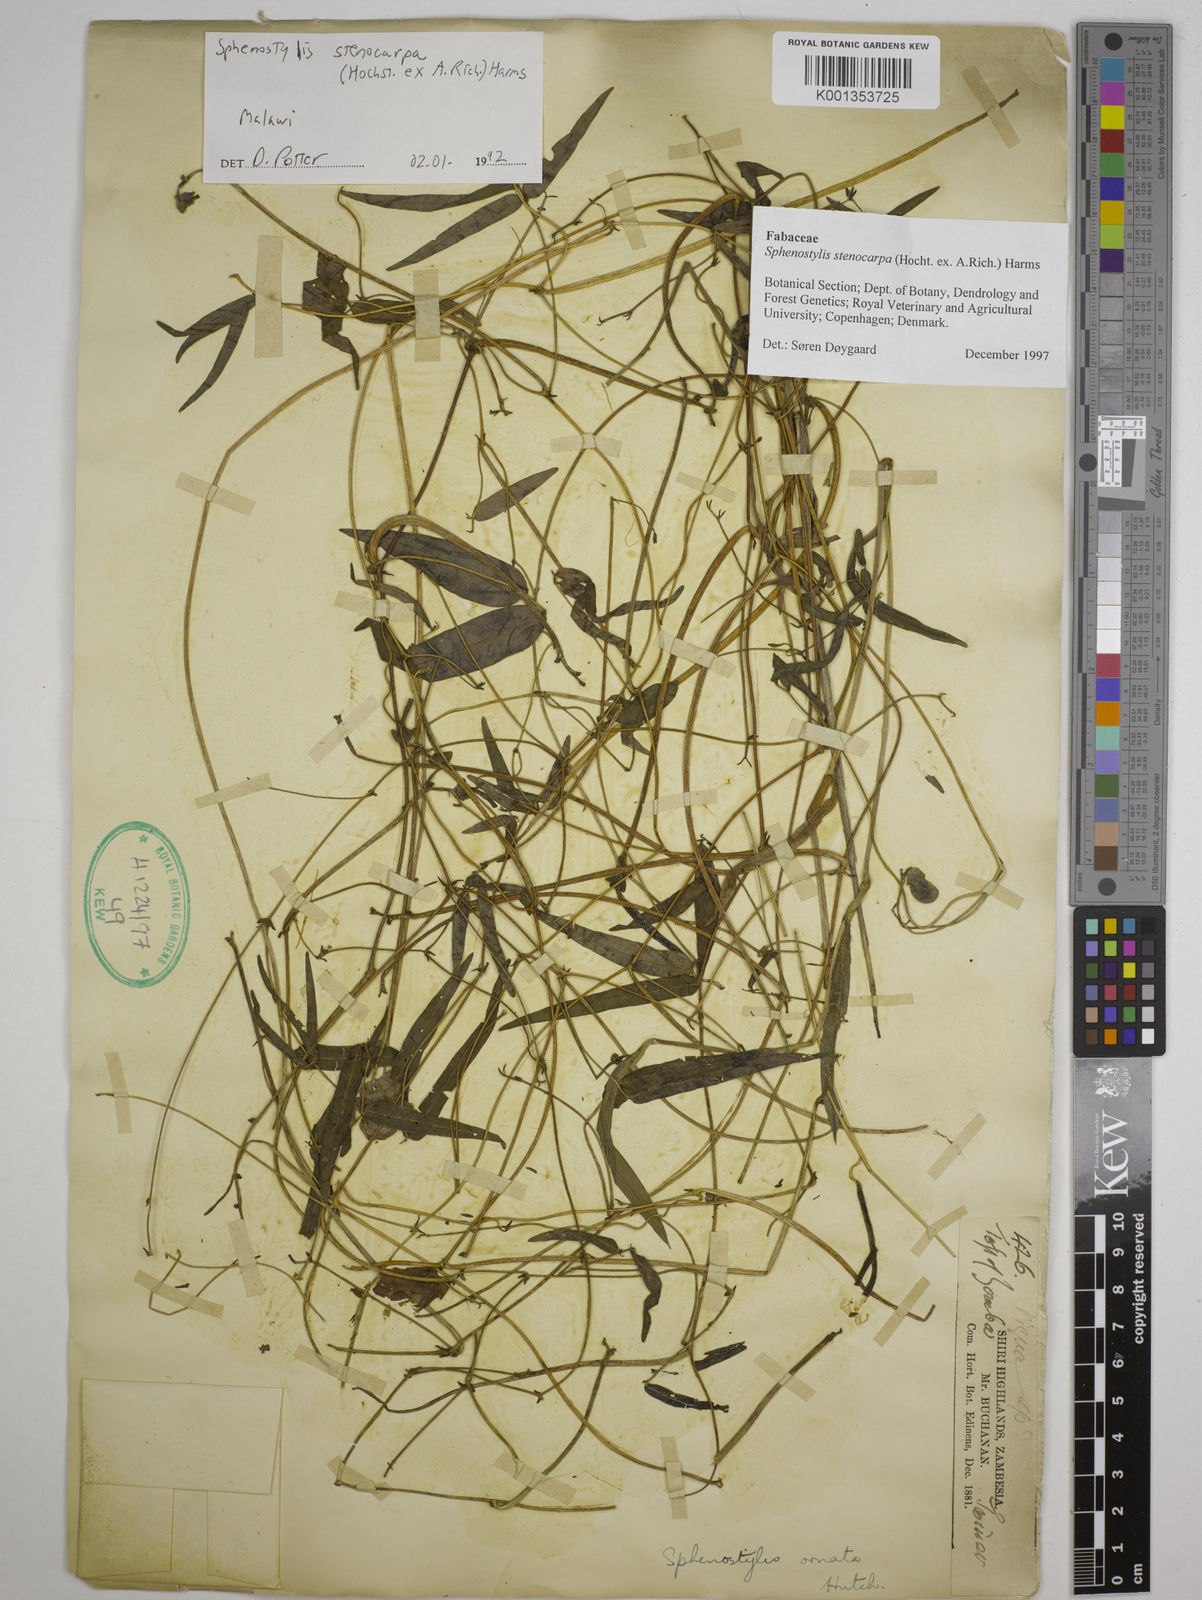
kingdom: Plantae
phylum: Tracheophyta
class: Magnoliopsida
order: Fabales
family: Fabaceae
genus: Sphenostylis
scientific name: Sphenostylis stenocarpa
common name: Yam-pea
